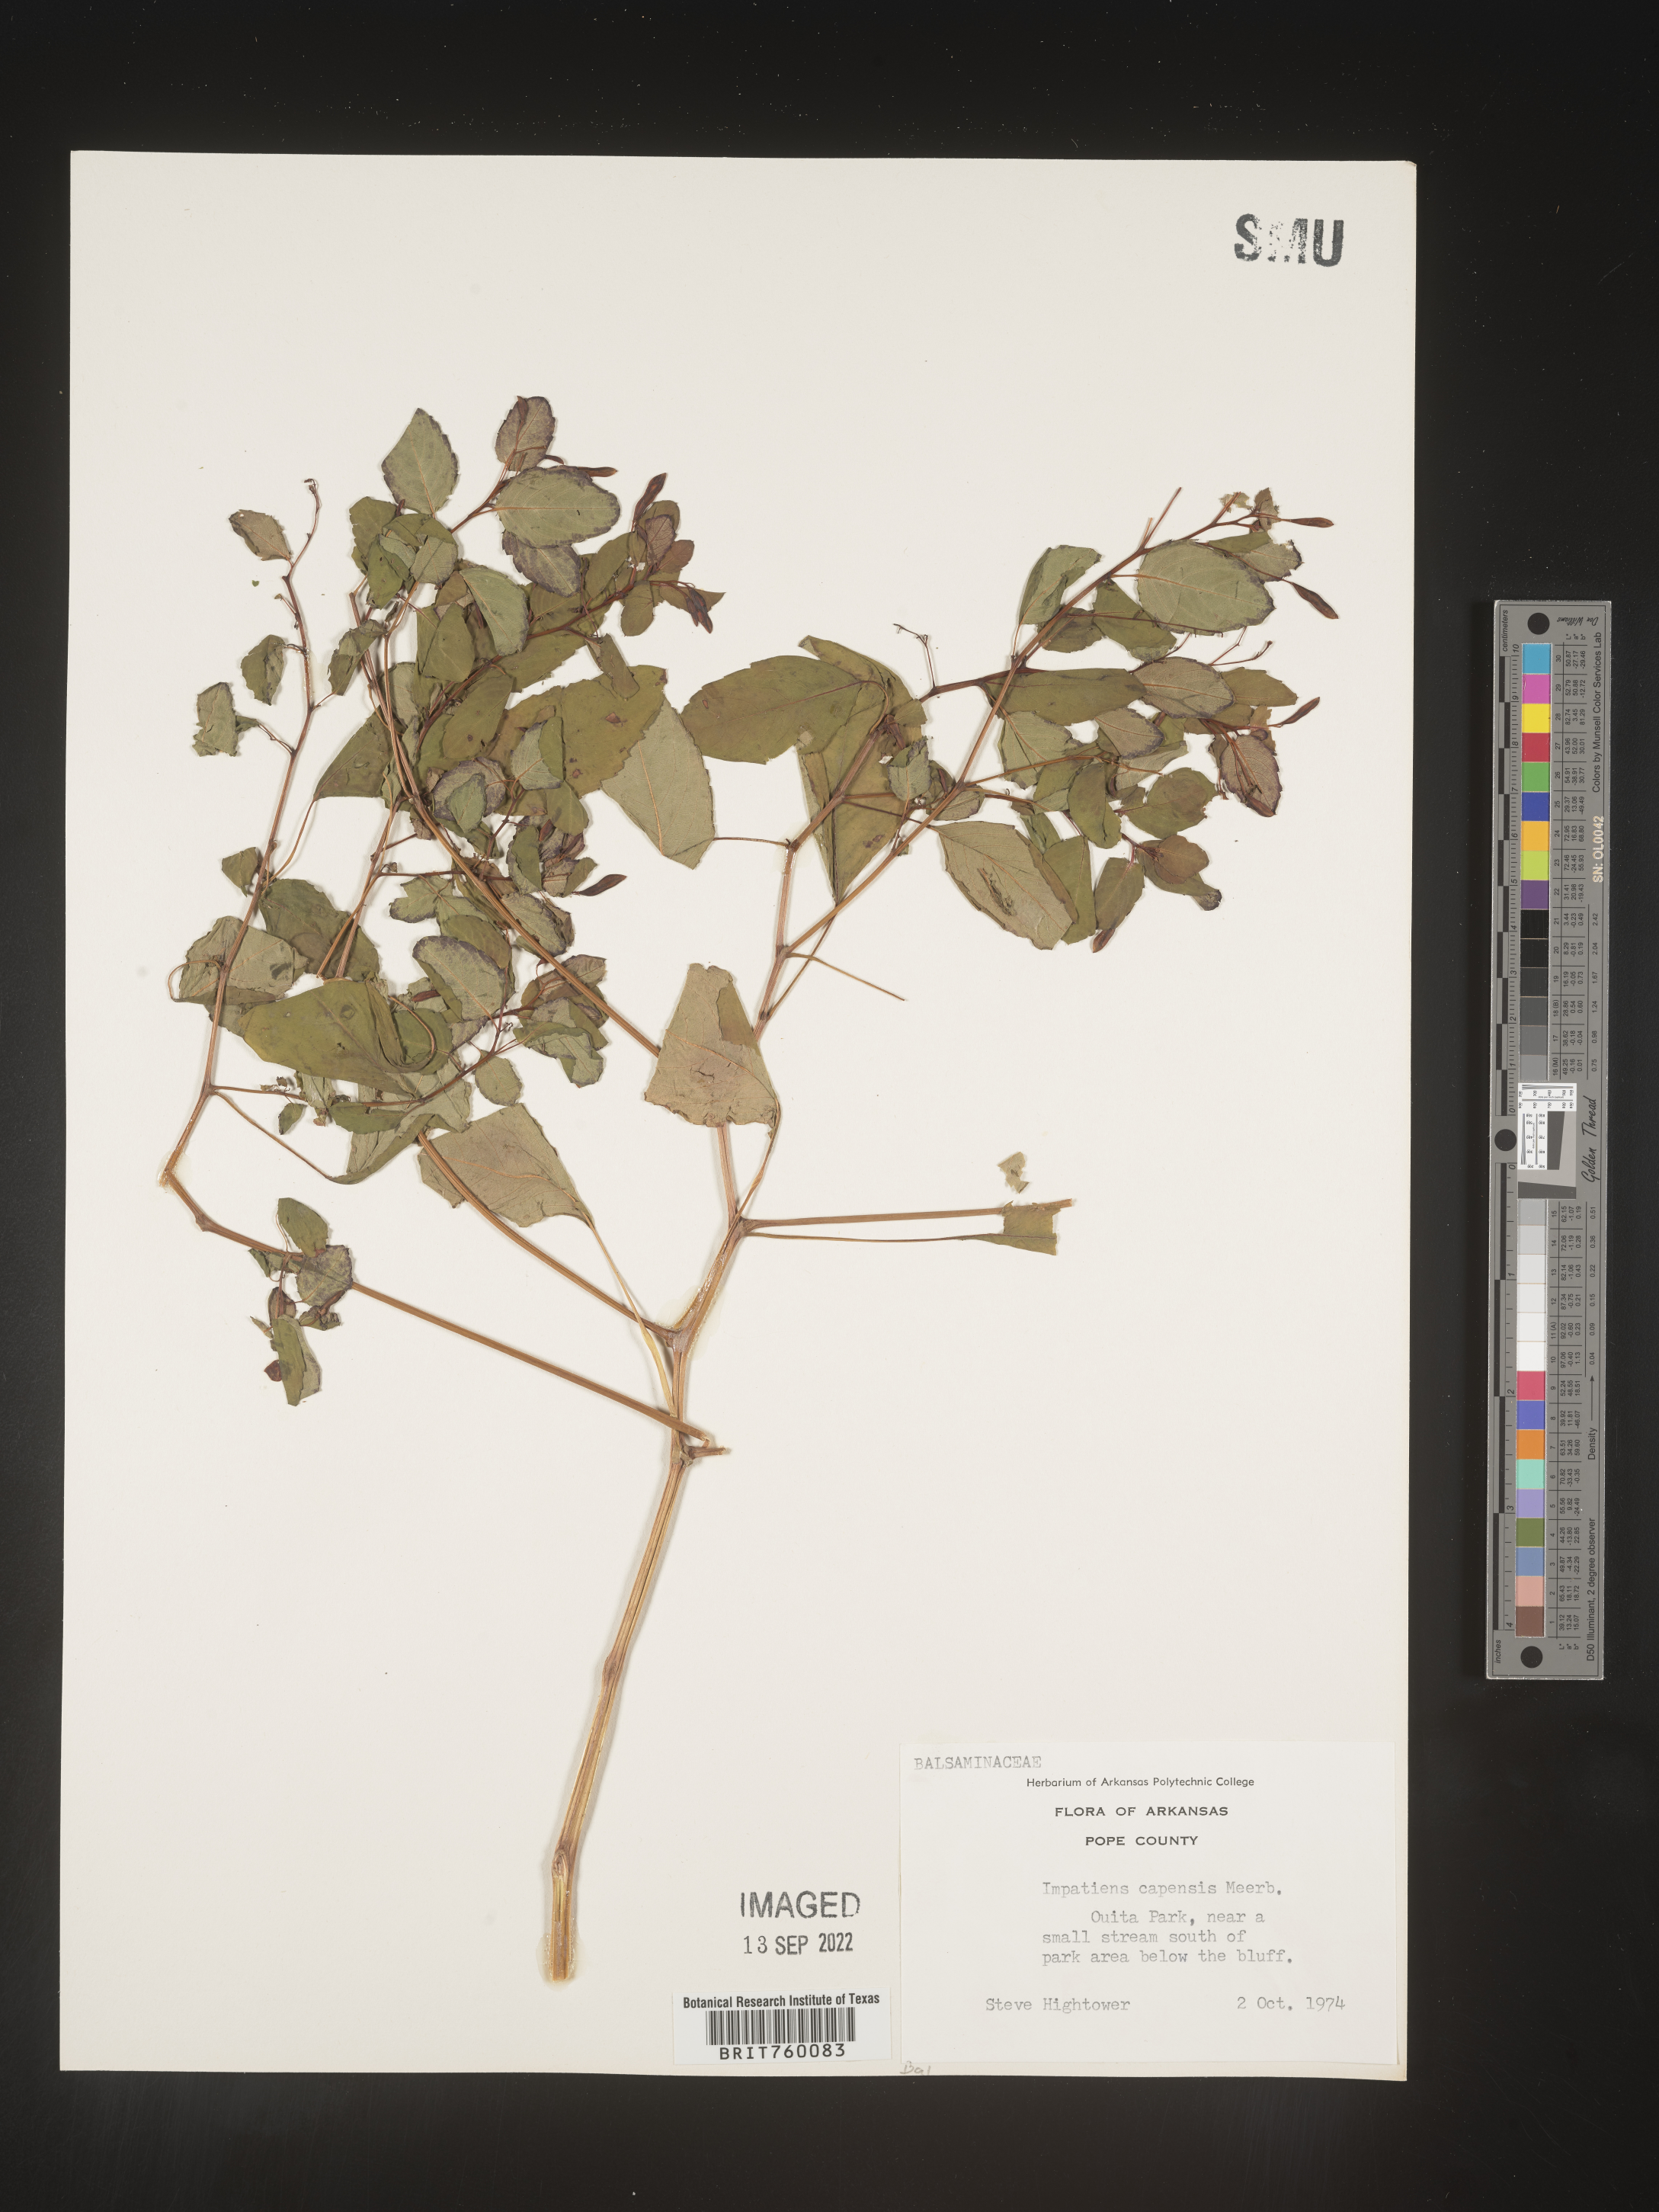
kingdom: Plantae
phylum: Tracheophyta
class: Magnoliopsida
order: Ericales
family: Balsaminaceae
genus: Impatiens
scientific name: Impatiens capensis
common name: Orange balsam
